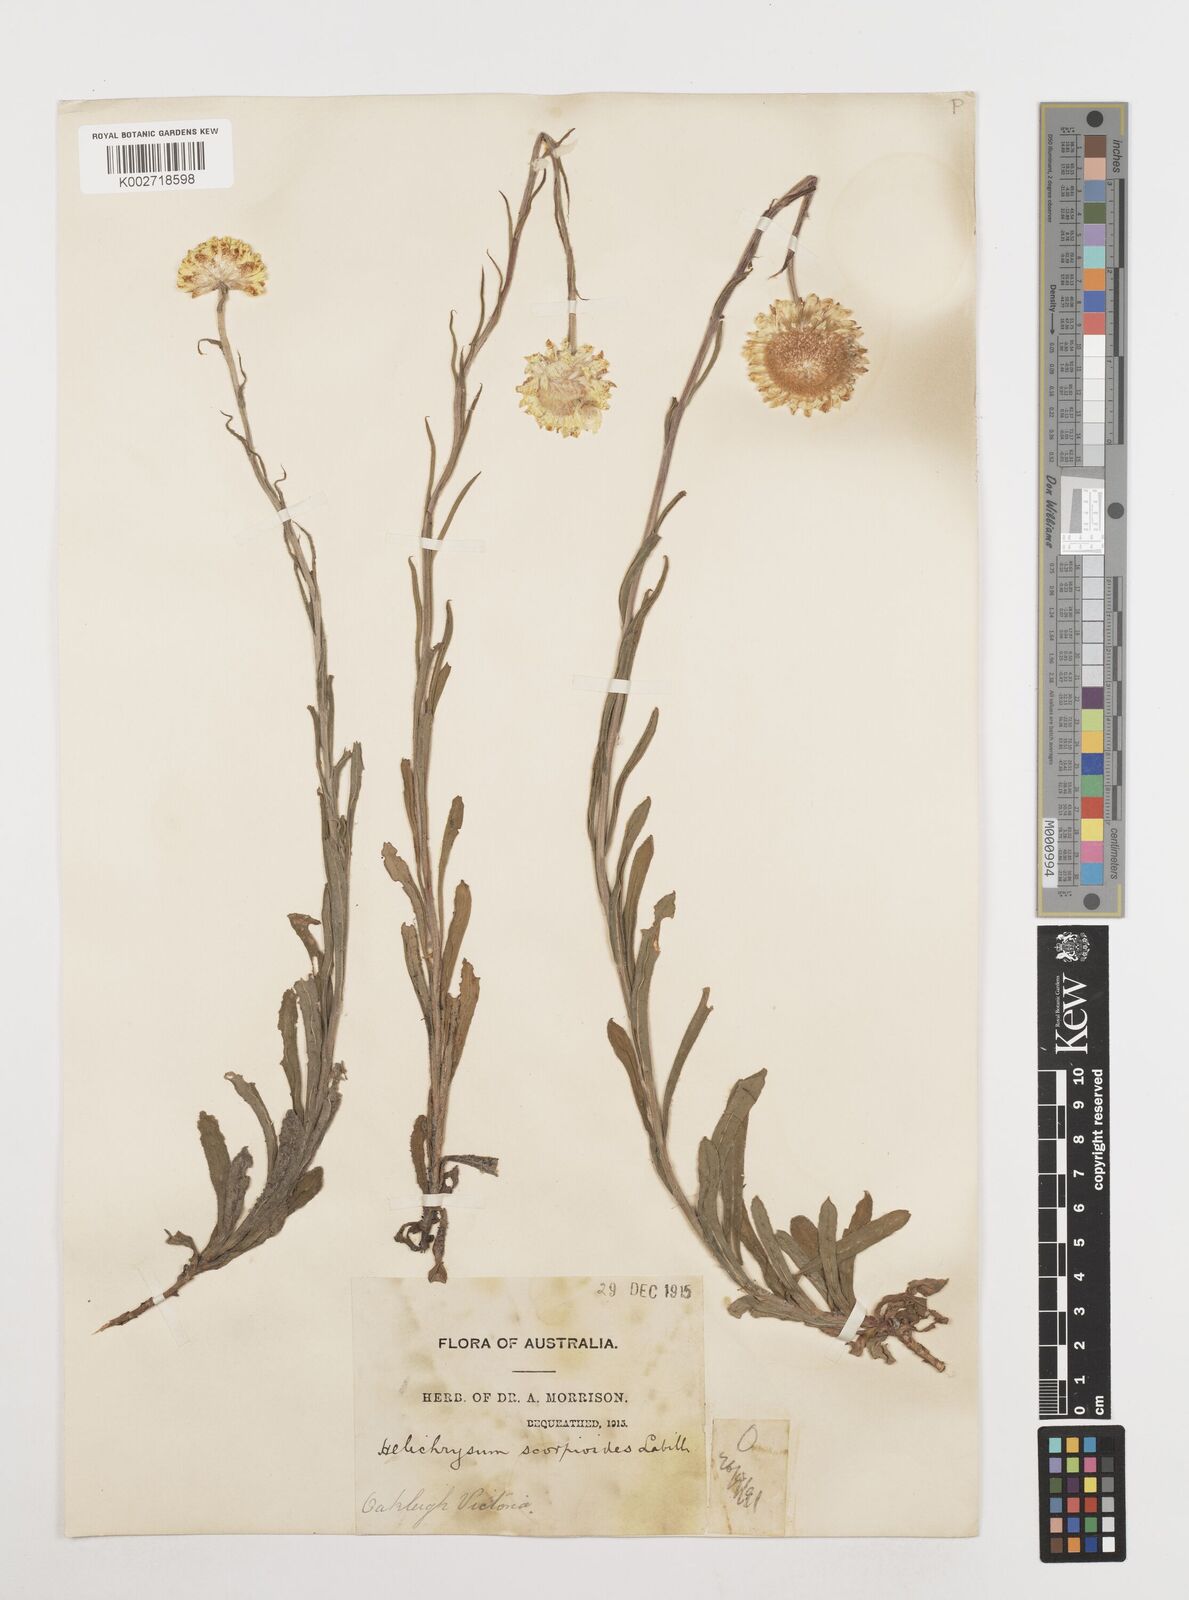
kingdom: Plantae
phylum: Tracheophyta
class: Magnoliopsida
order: Asterales
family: Asteraceae
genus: Coronidium
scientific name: Coronidium scorpioides
